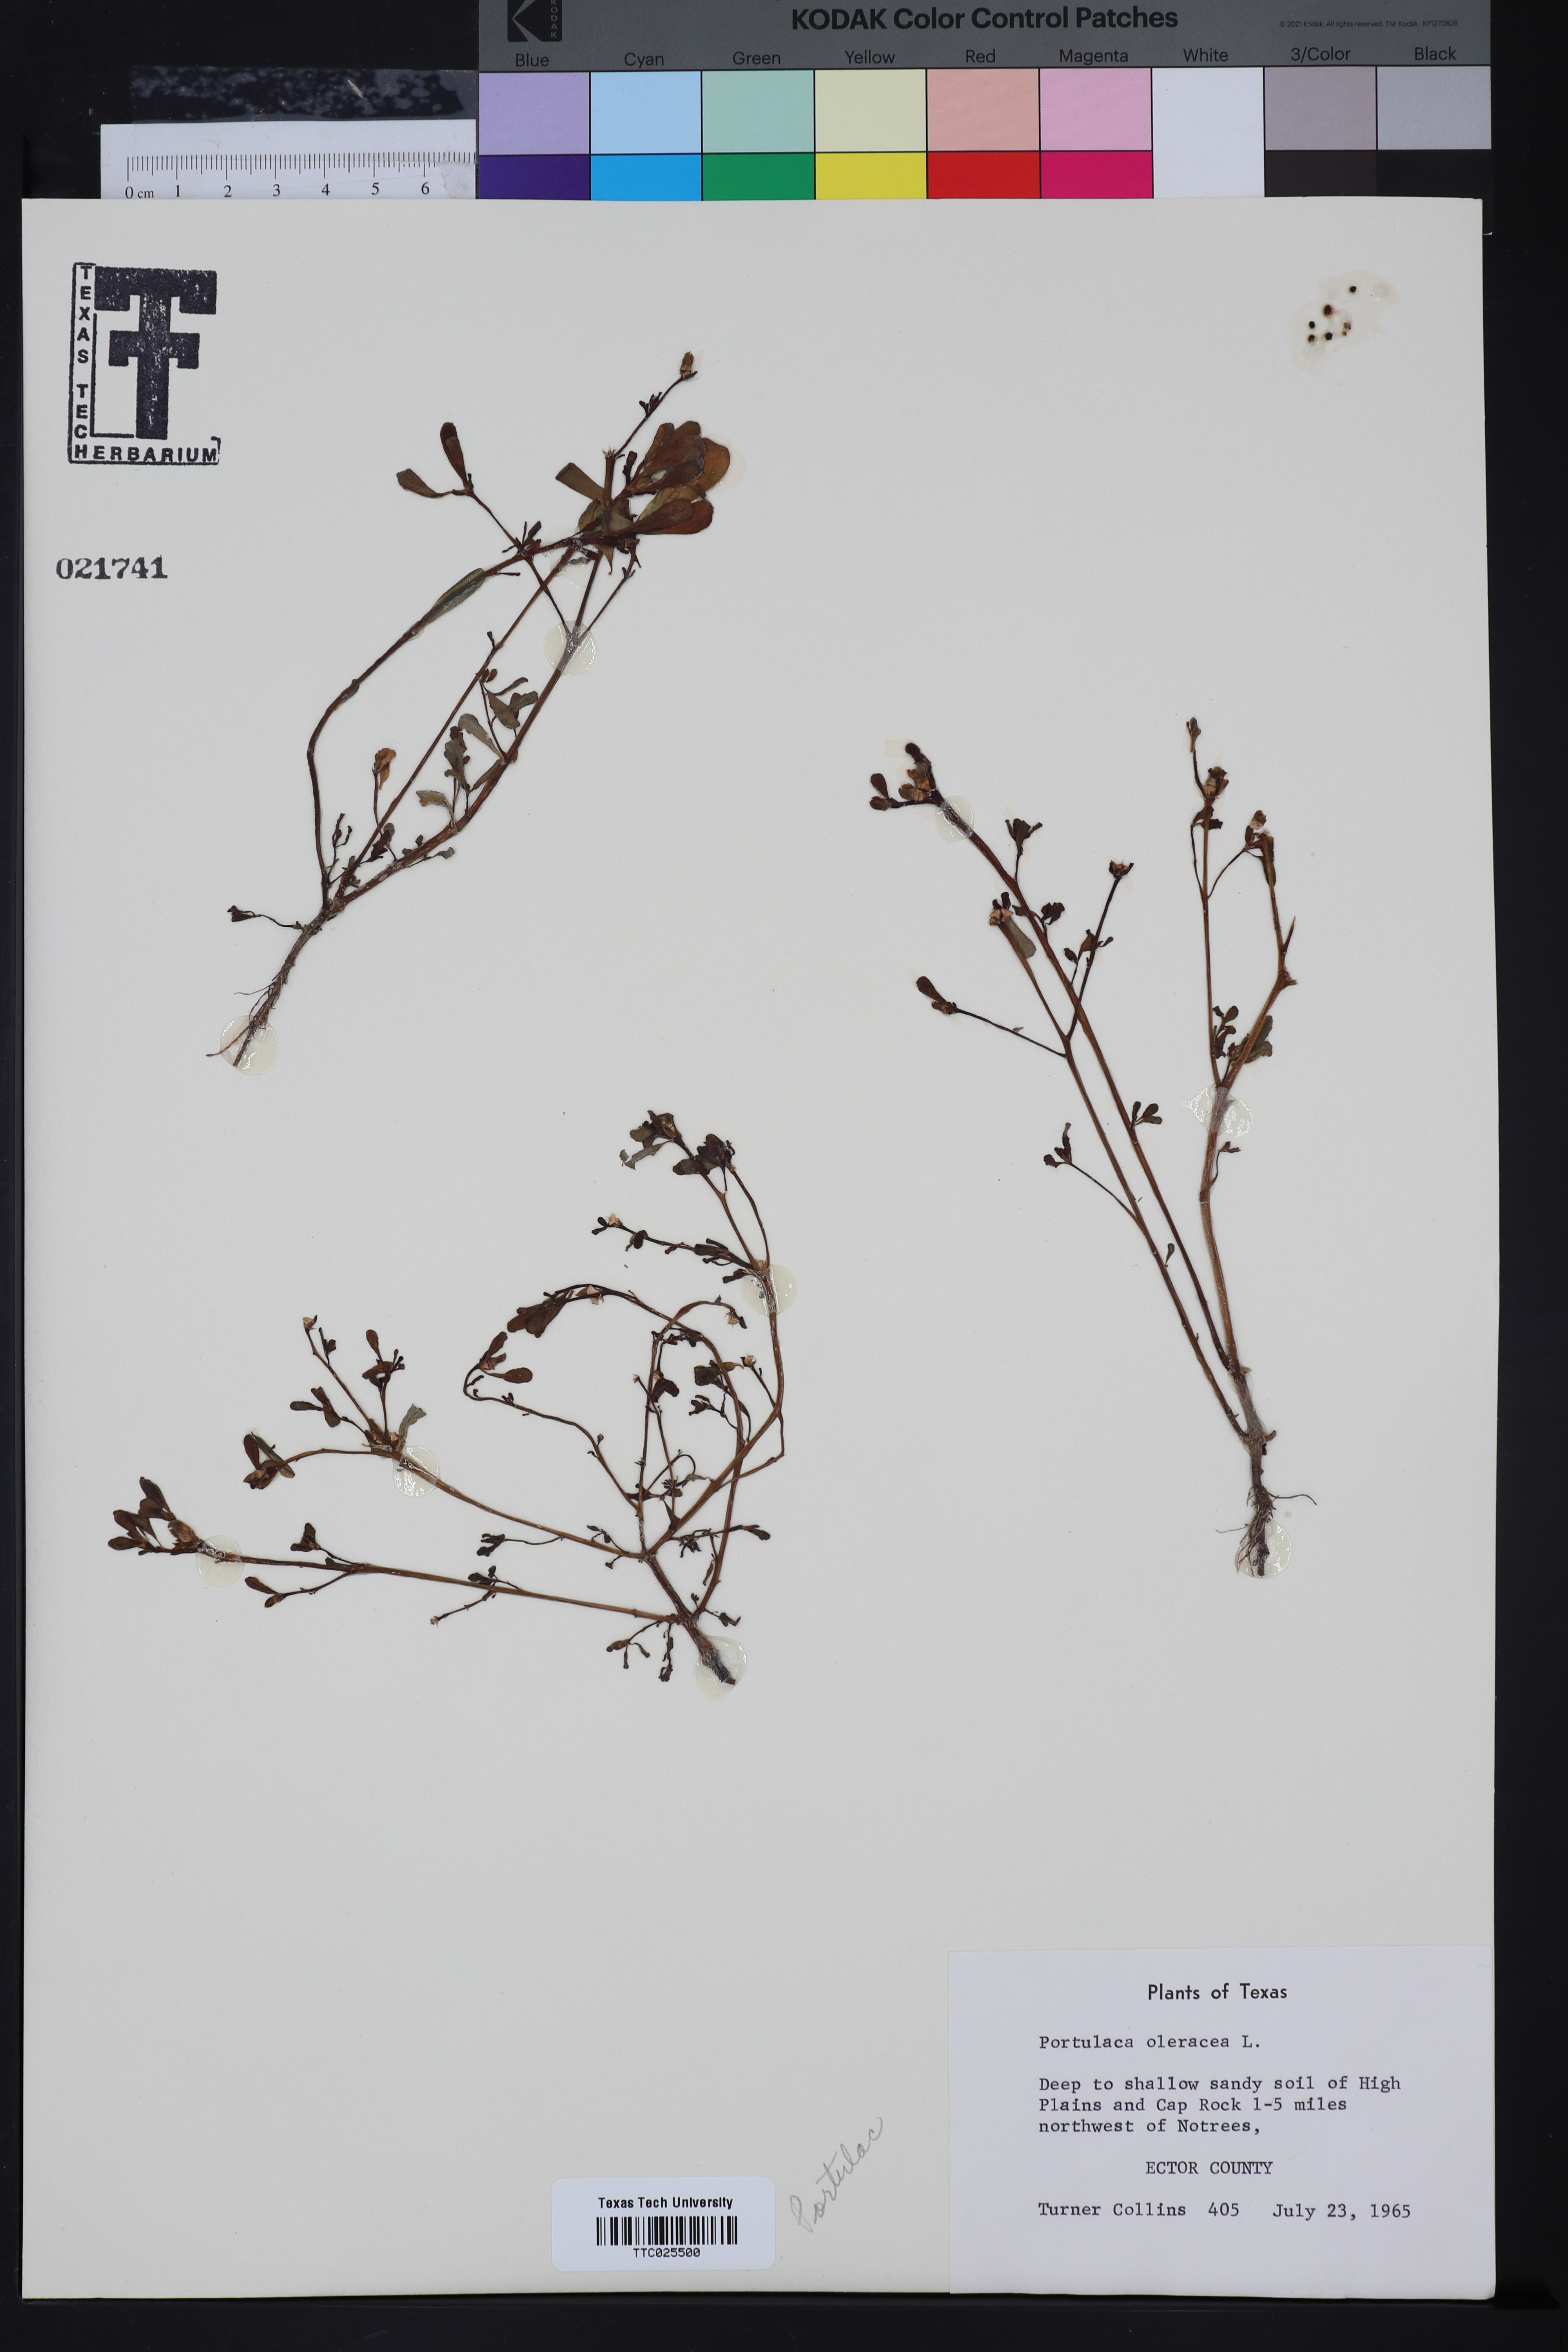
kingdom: Plantae
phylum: Tracheophyta
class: Magnoliopsida
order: Caryophyllales
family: Portulacaceae
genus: Portulaca
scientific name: Portulaca oleracea
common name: Common purslane
